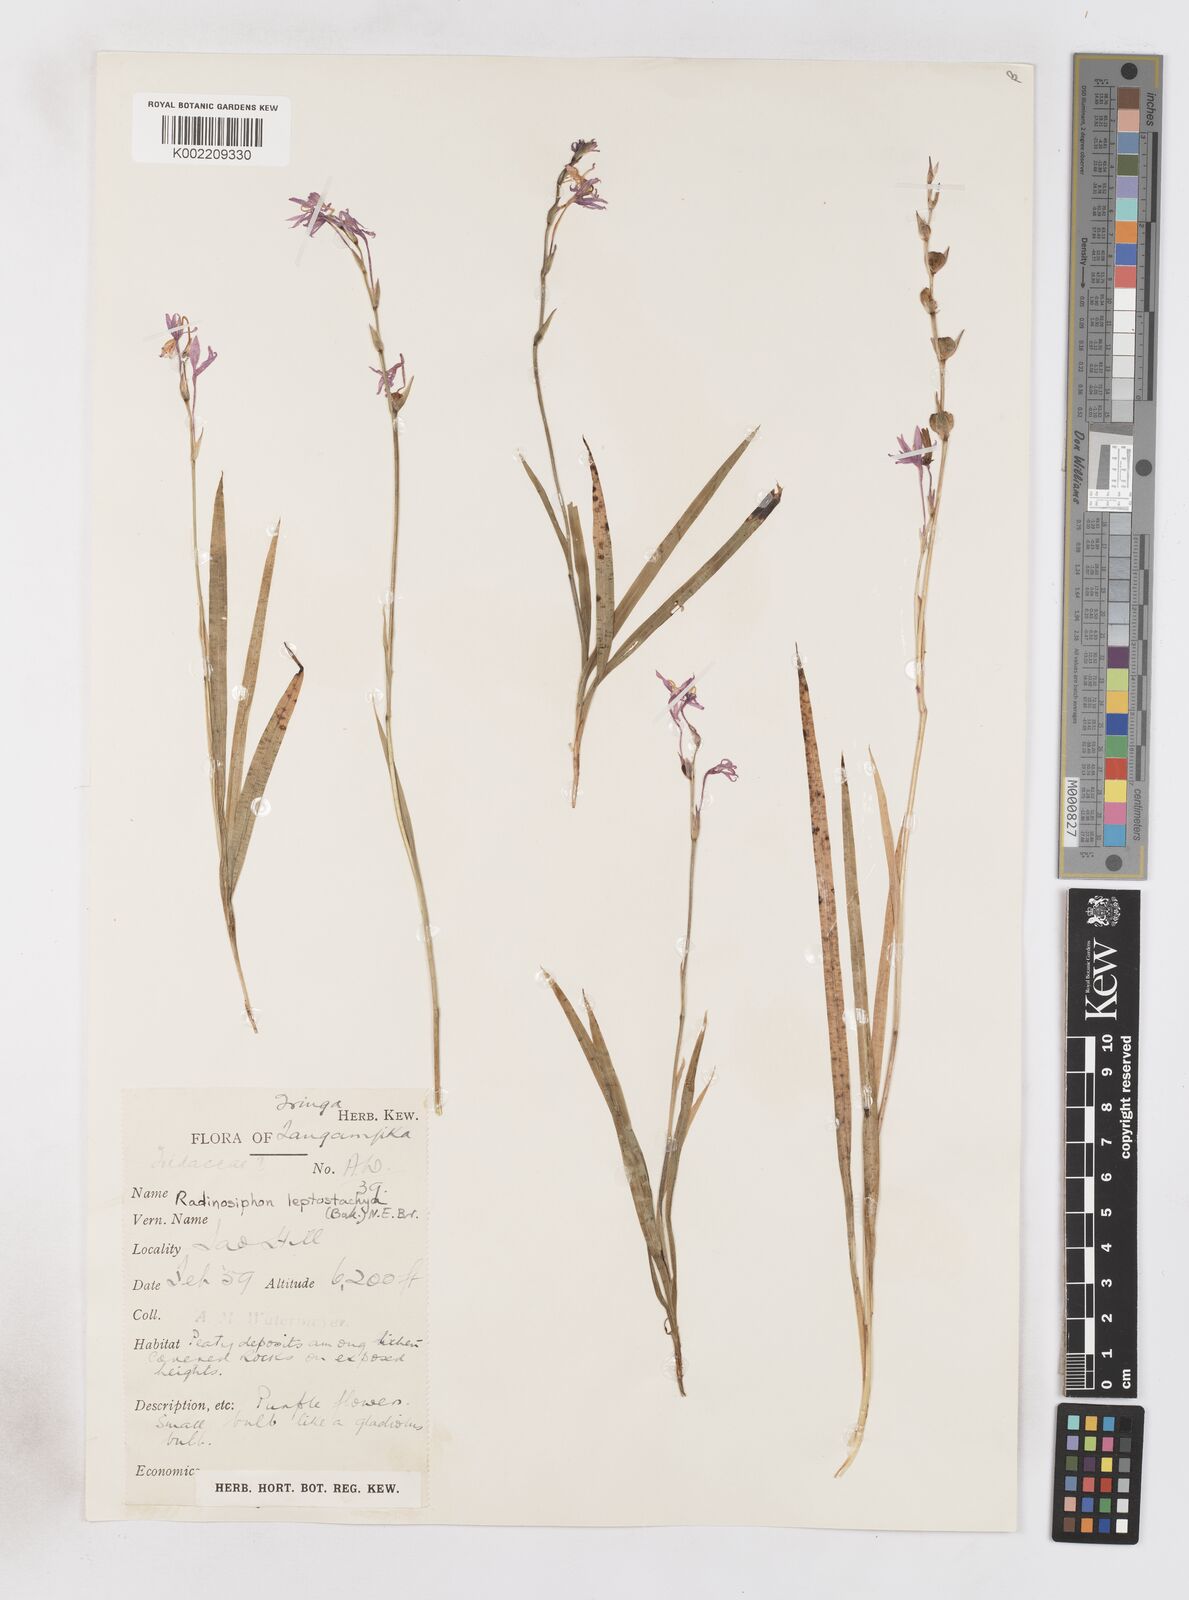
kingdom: Plantae
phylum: Tracheophyta
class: Liliopsida
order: Asparagales
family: Iridaceae
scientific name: Iridaceae
